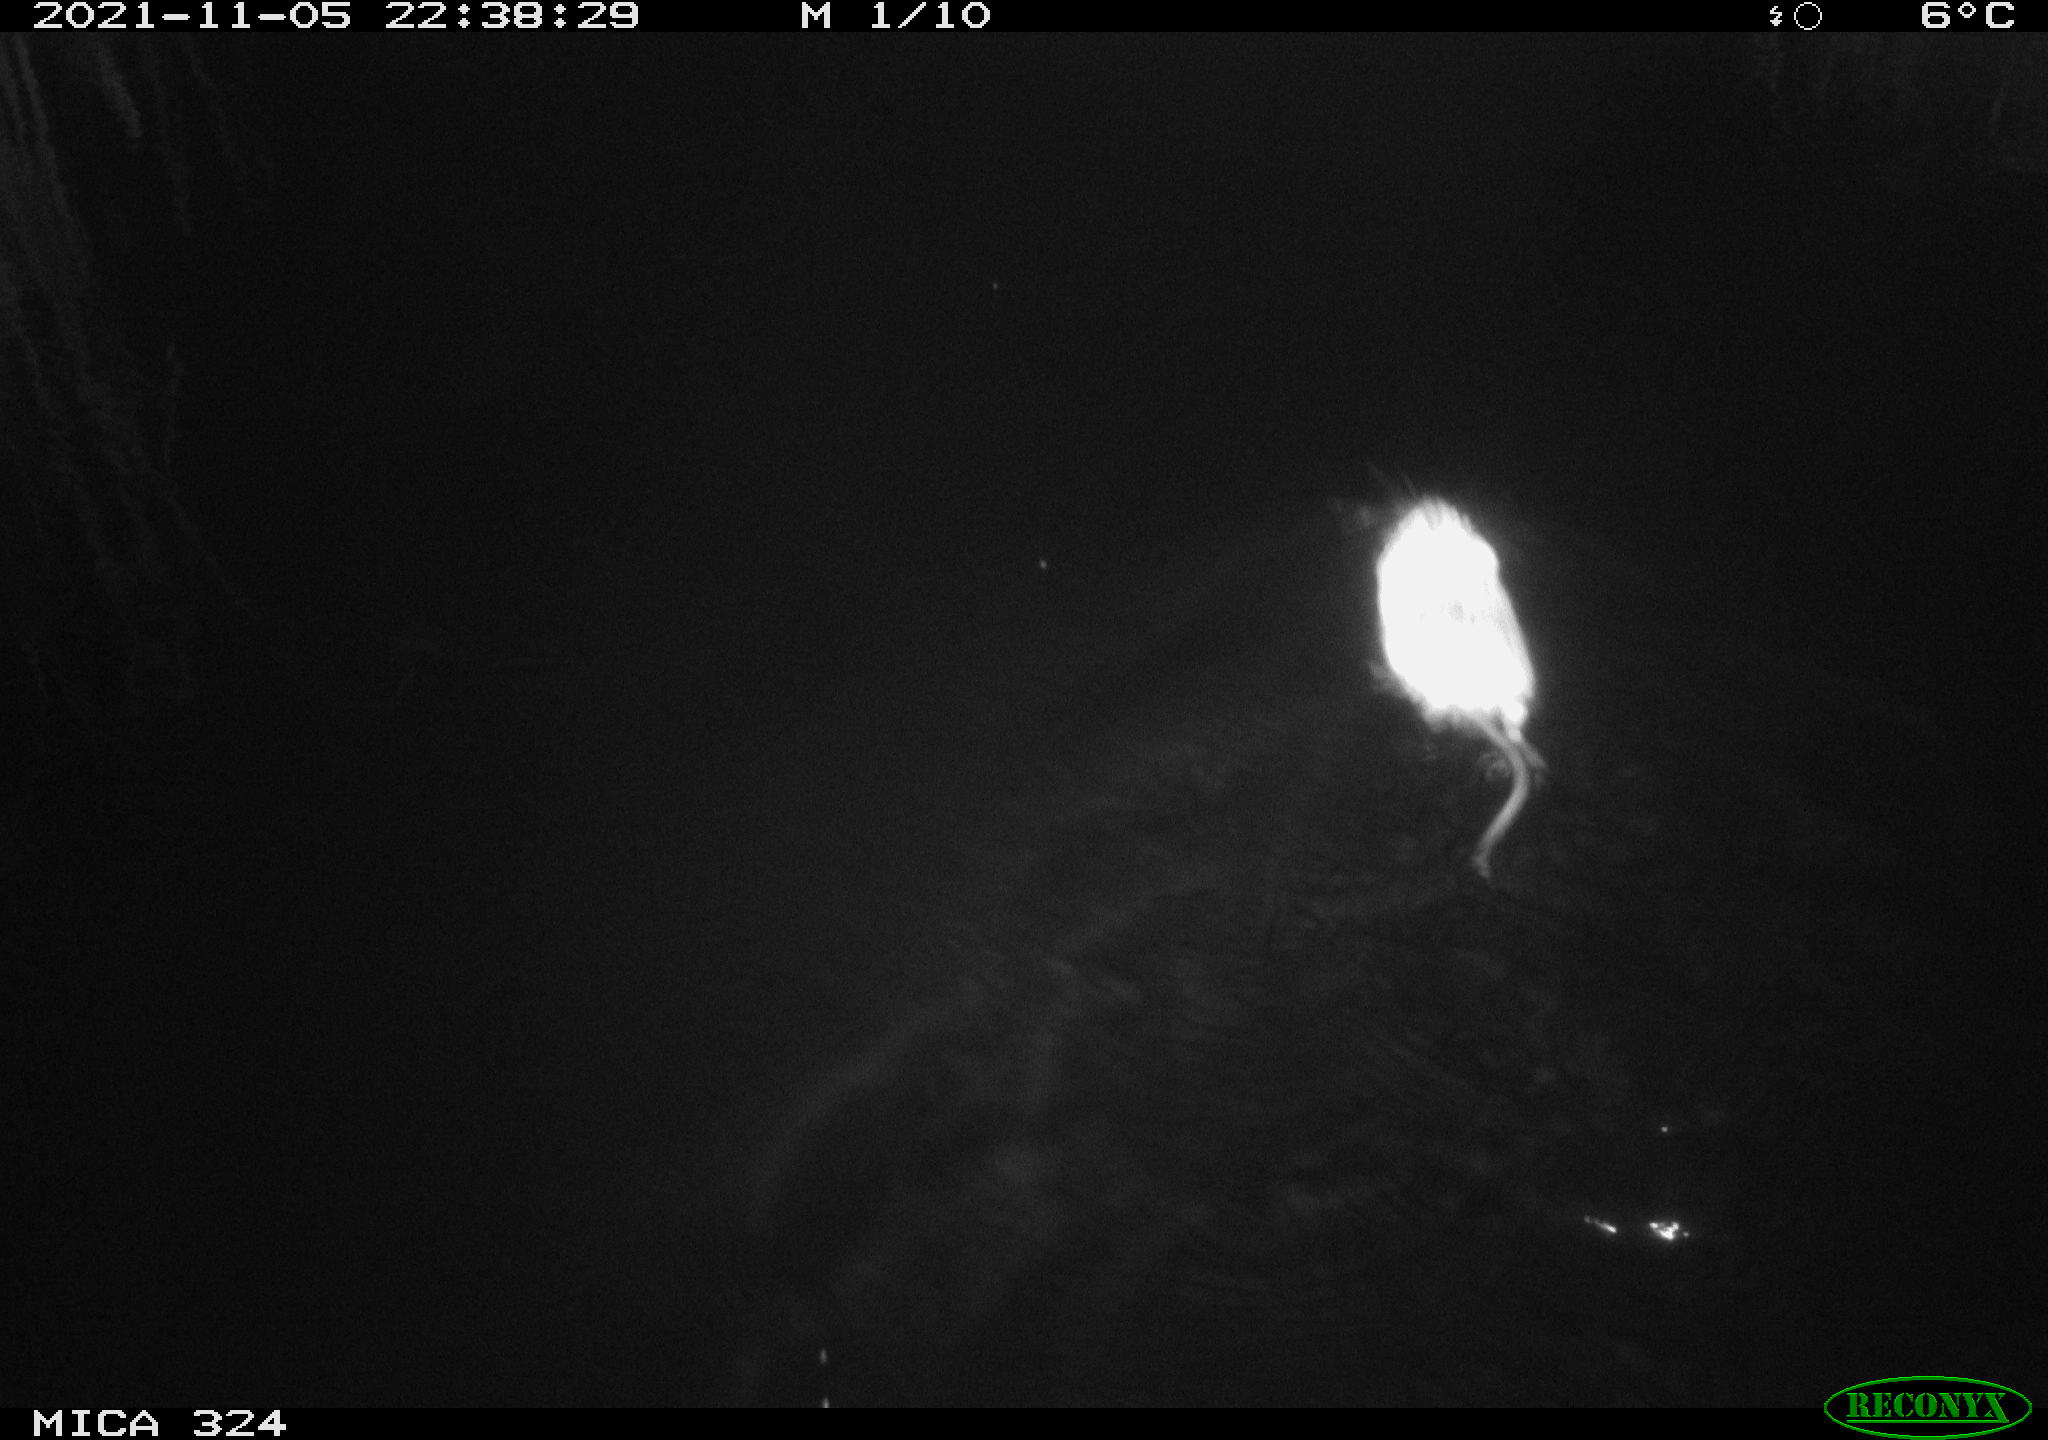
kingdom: Animalia
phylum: Chordata
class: Mammalia
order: Rodentia
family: Cricetidae
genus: Ondatra
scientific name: Ondatra zibethicus
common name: Muskrat
